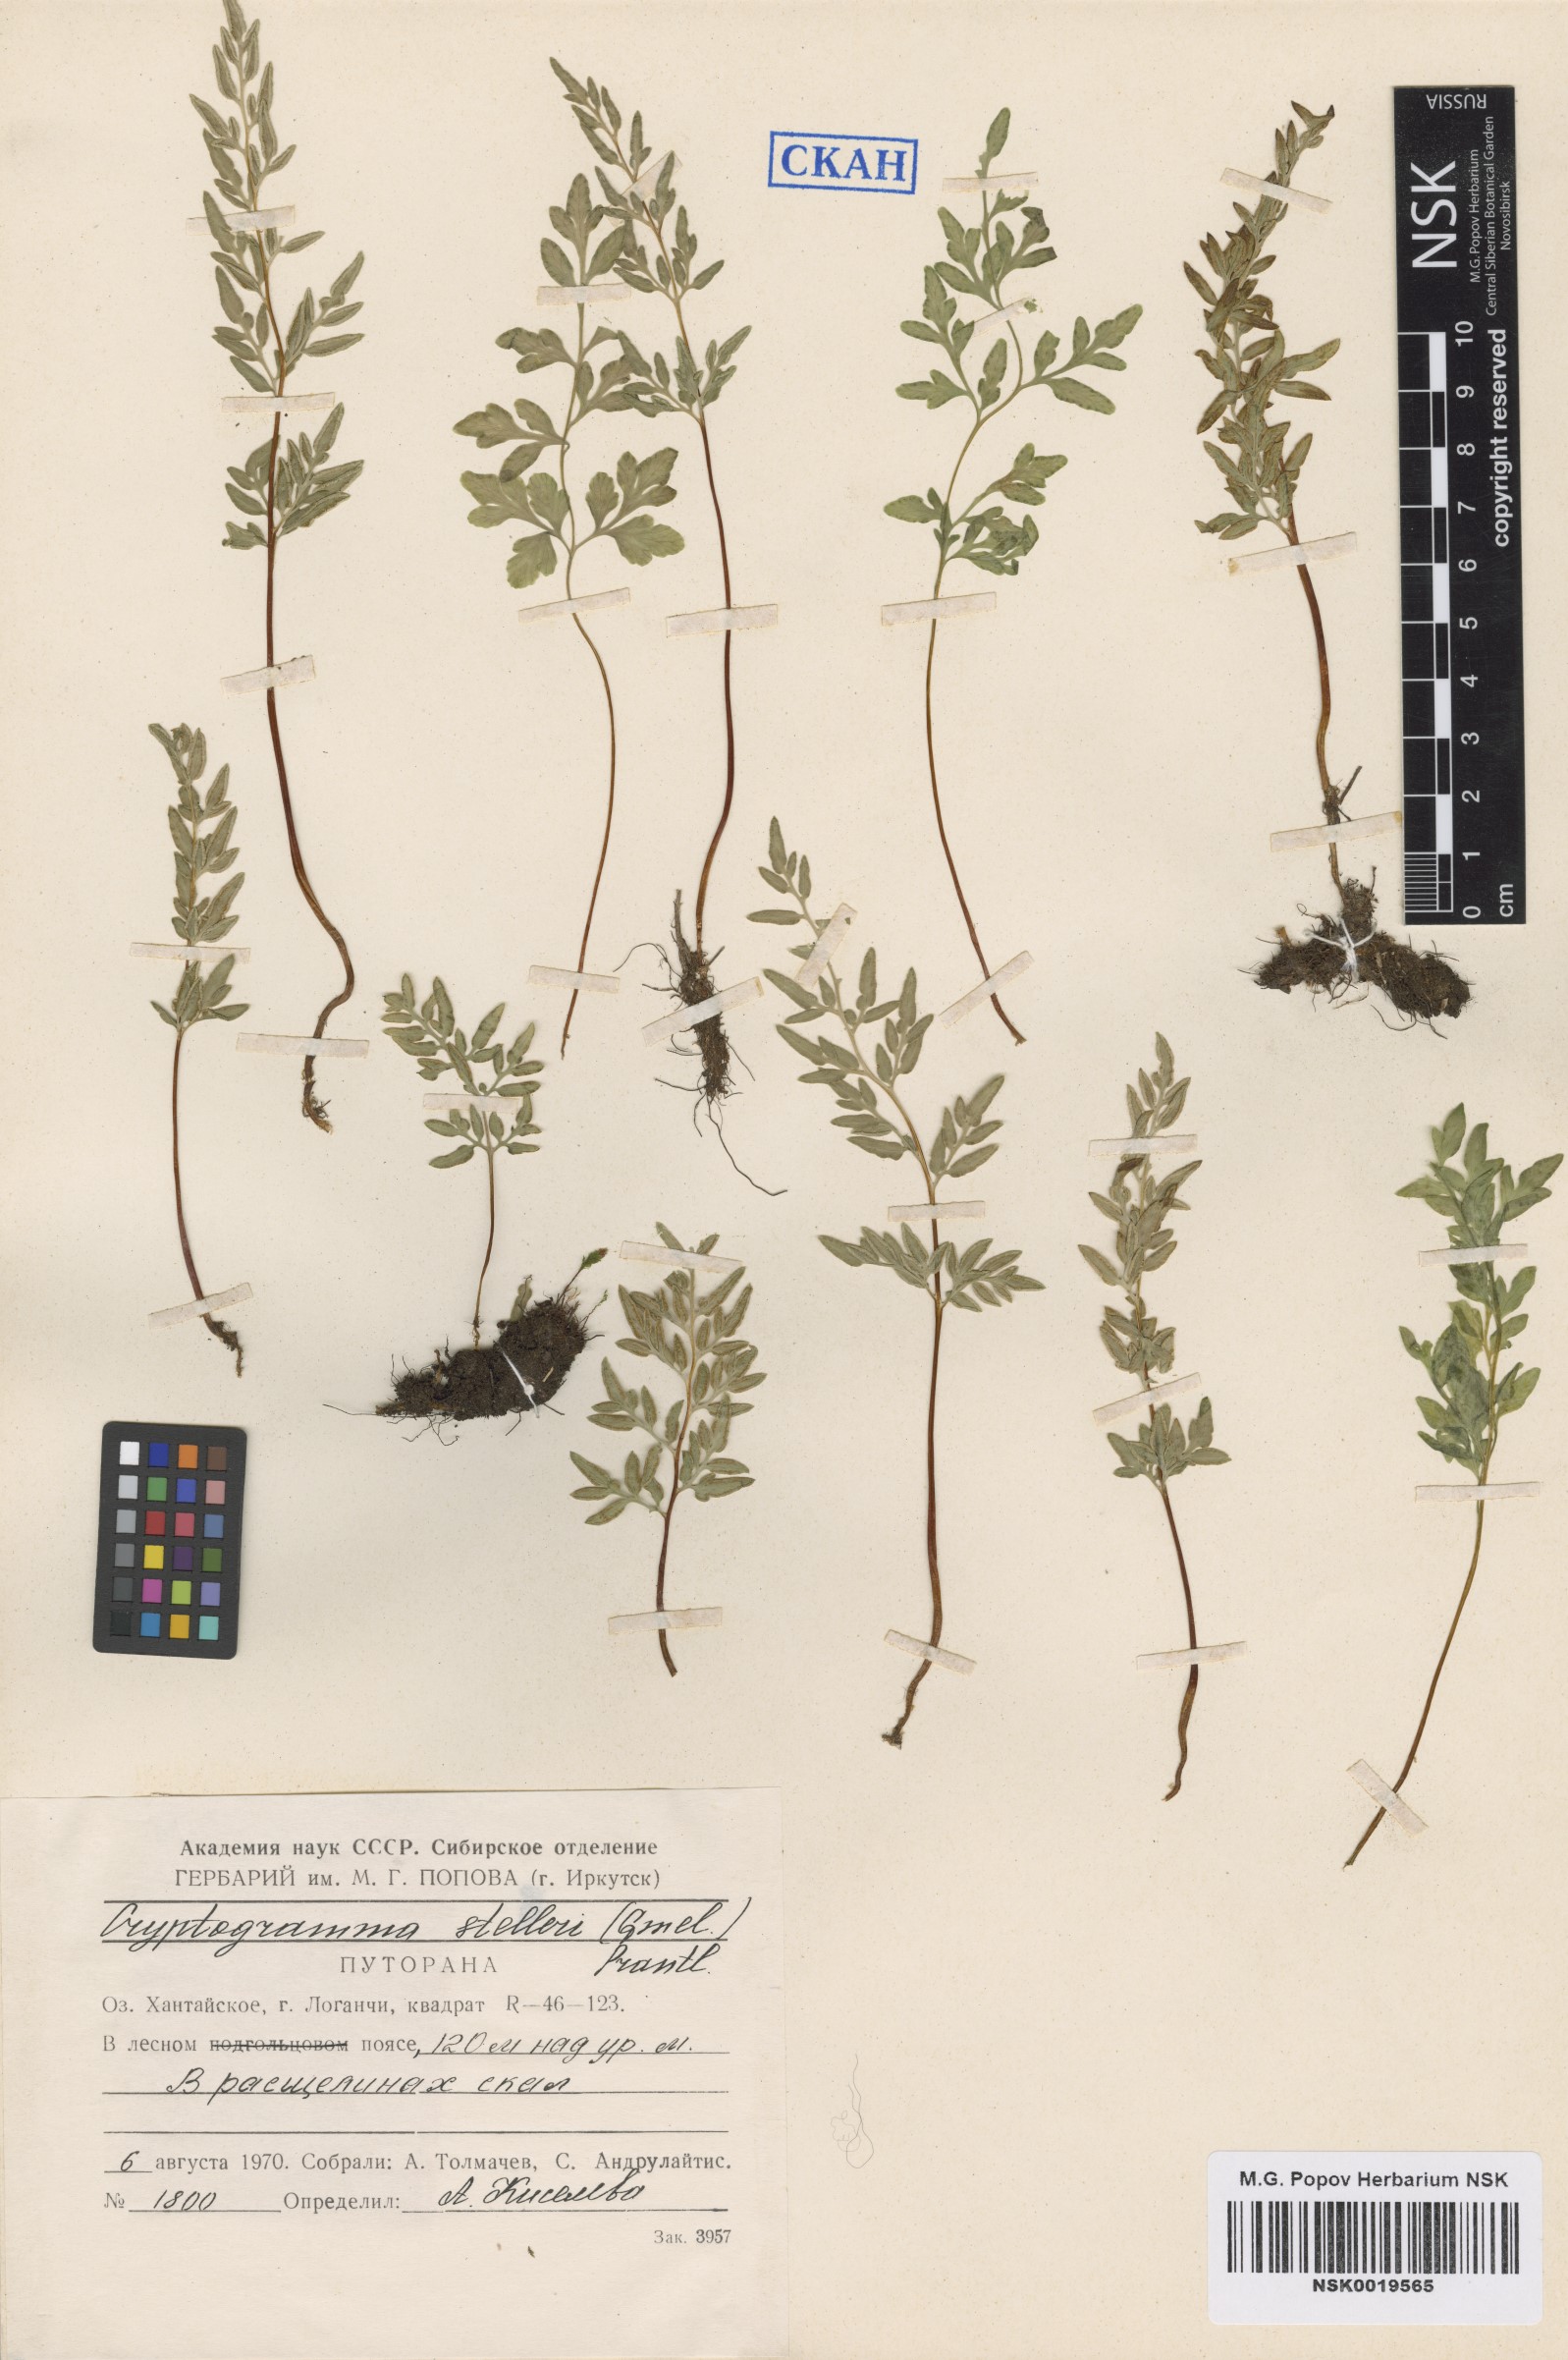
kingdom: Plantae
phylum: Tracheophyta
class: Polypodiopsida
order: Polypodiales
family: Pteridaceae
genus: Cryptogramma
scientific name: Cryptogramma stelleri
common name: Cliff-brake
